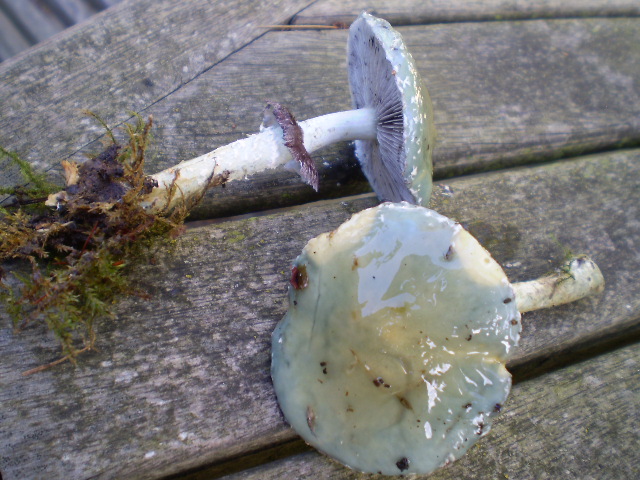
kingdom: Fungi
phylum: Basidiomycota
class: Agaricomycetes
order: Agaricales
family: Strophariaceae
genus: Stropharia
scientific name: Stropharia aeruginosa
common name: spanskgrøn bredblad
